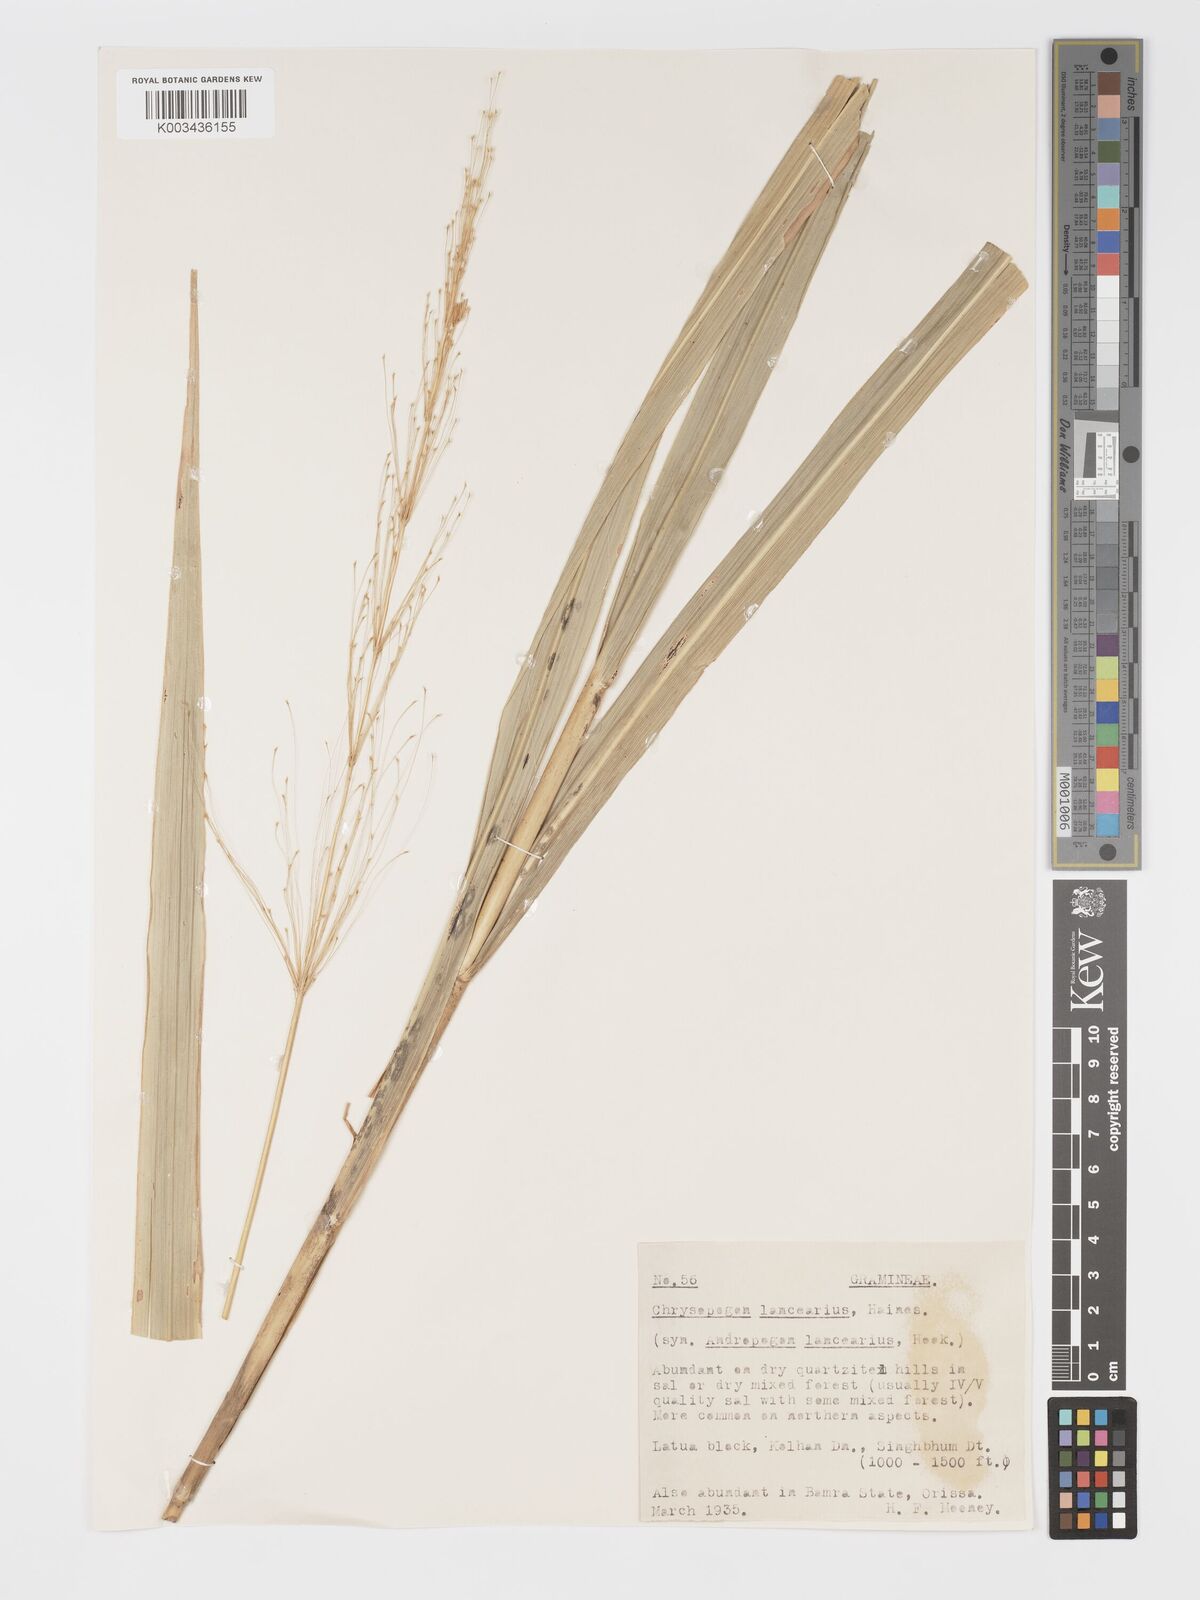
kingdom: Plantae
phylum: Tracheophyta
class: Liliopsida
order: Poales
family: Poaceae
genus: Chrysopogon
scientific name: Chrysopogon lancearius
